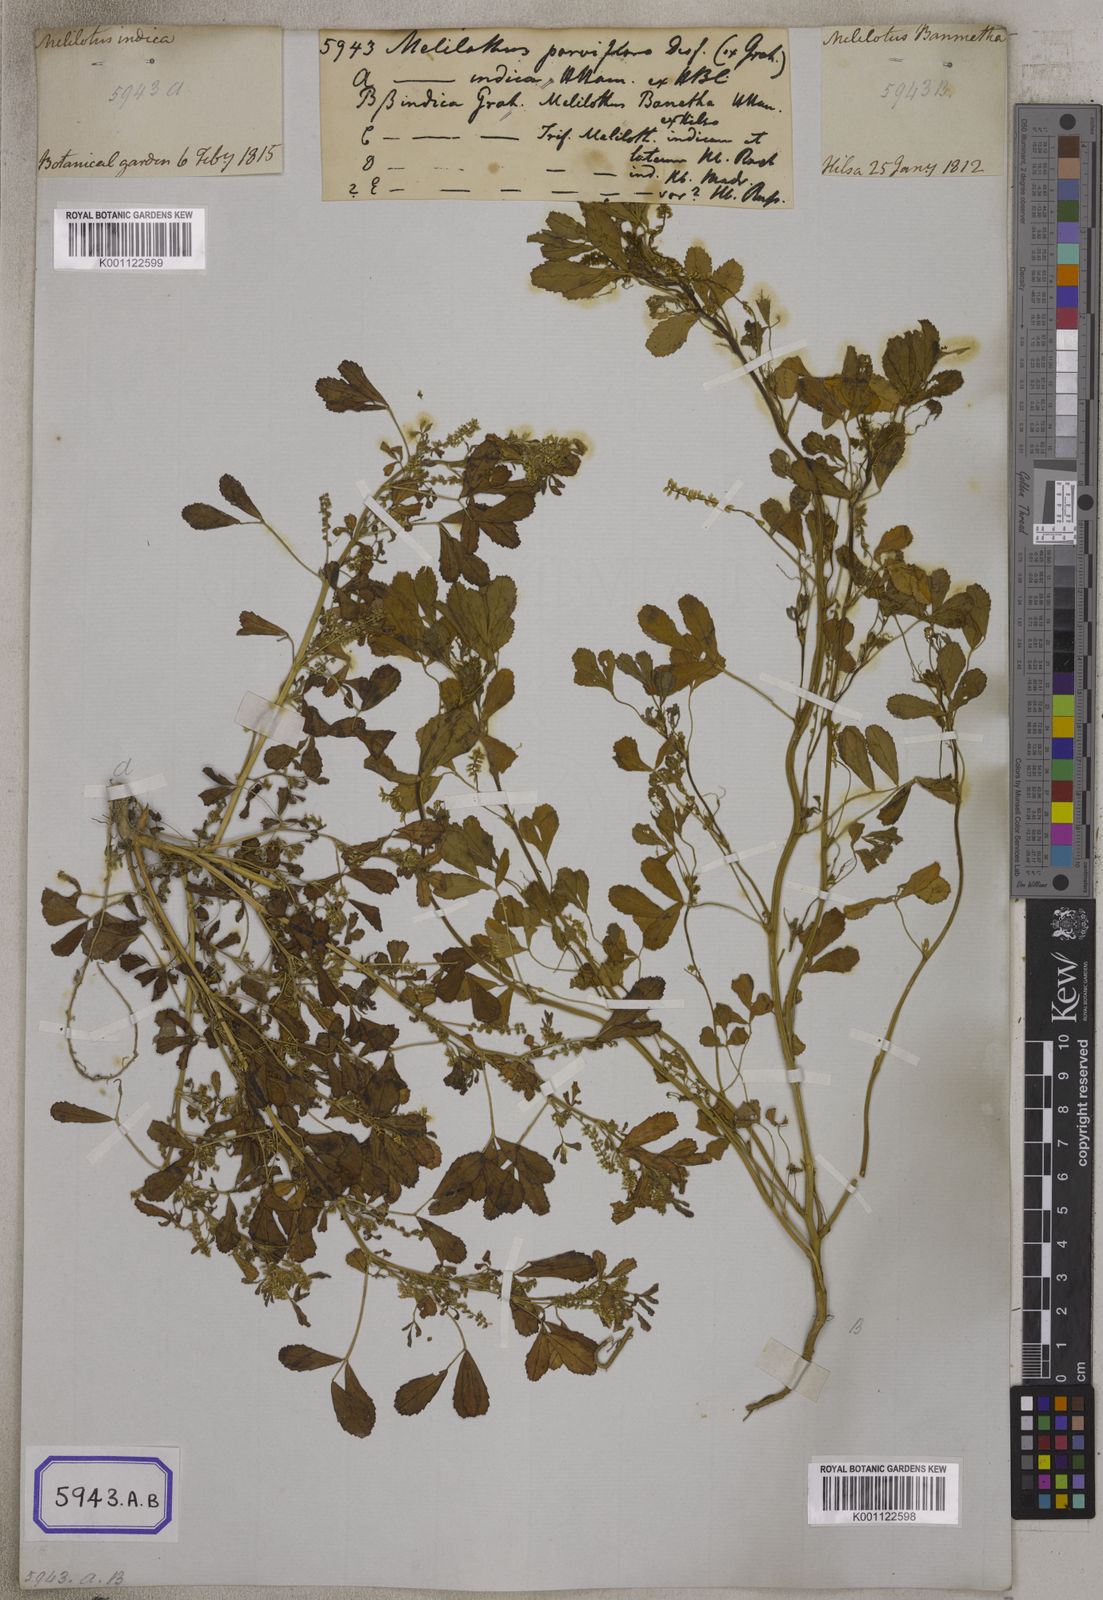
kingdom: Plantae
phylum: Tracheophyta
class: Magnoliopsida
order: Fabales
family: Fabaceae
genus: Melilotus
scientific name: Melilotus indicus
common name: Small melilot
